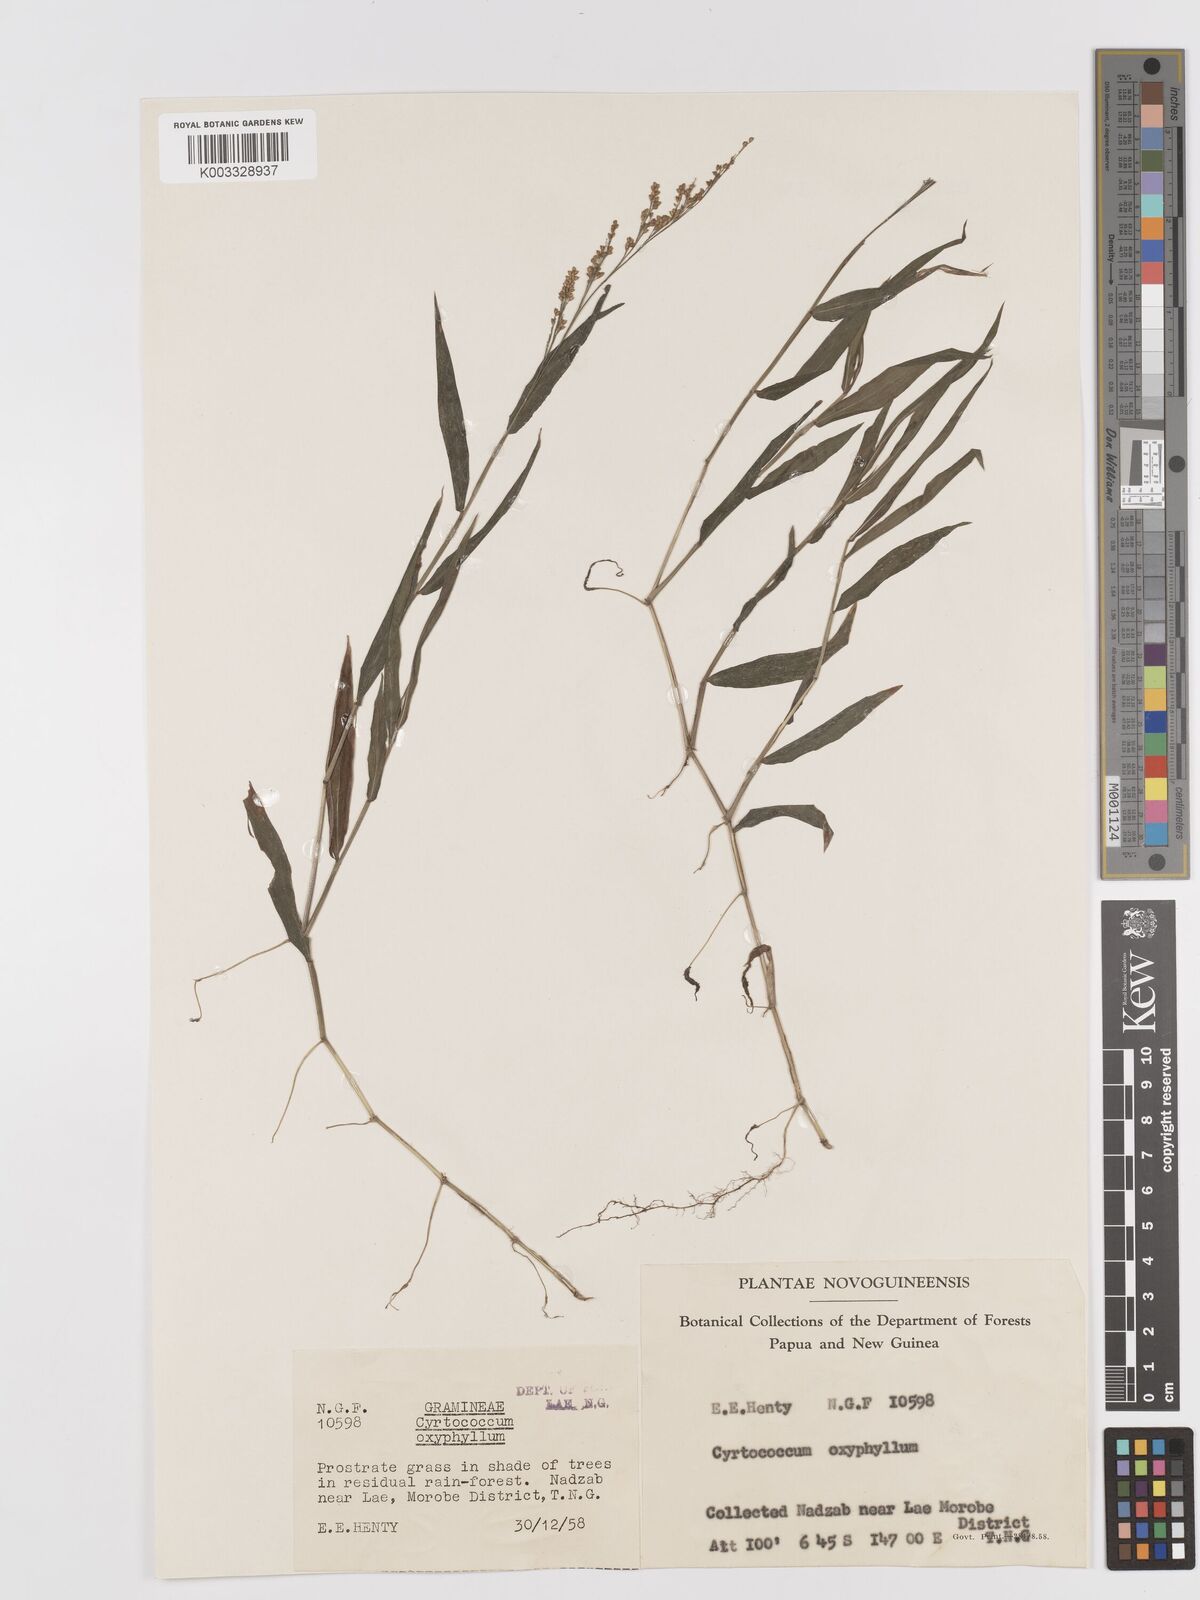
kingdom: Plantae
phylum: Tracheophyta
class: Liliopsida
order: Poales
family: Poaceae
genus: Cyrtococcum
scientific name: Cyrtococcum oxyphyllum
